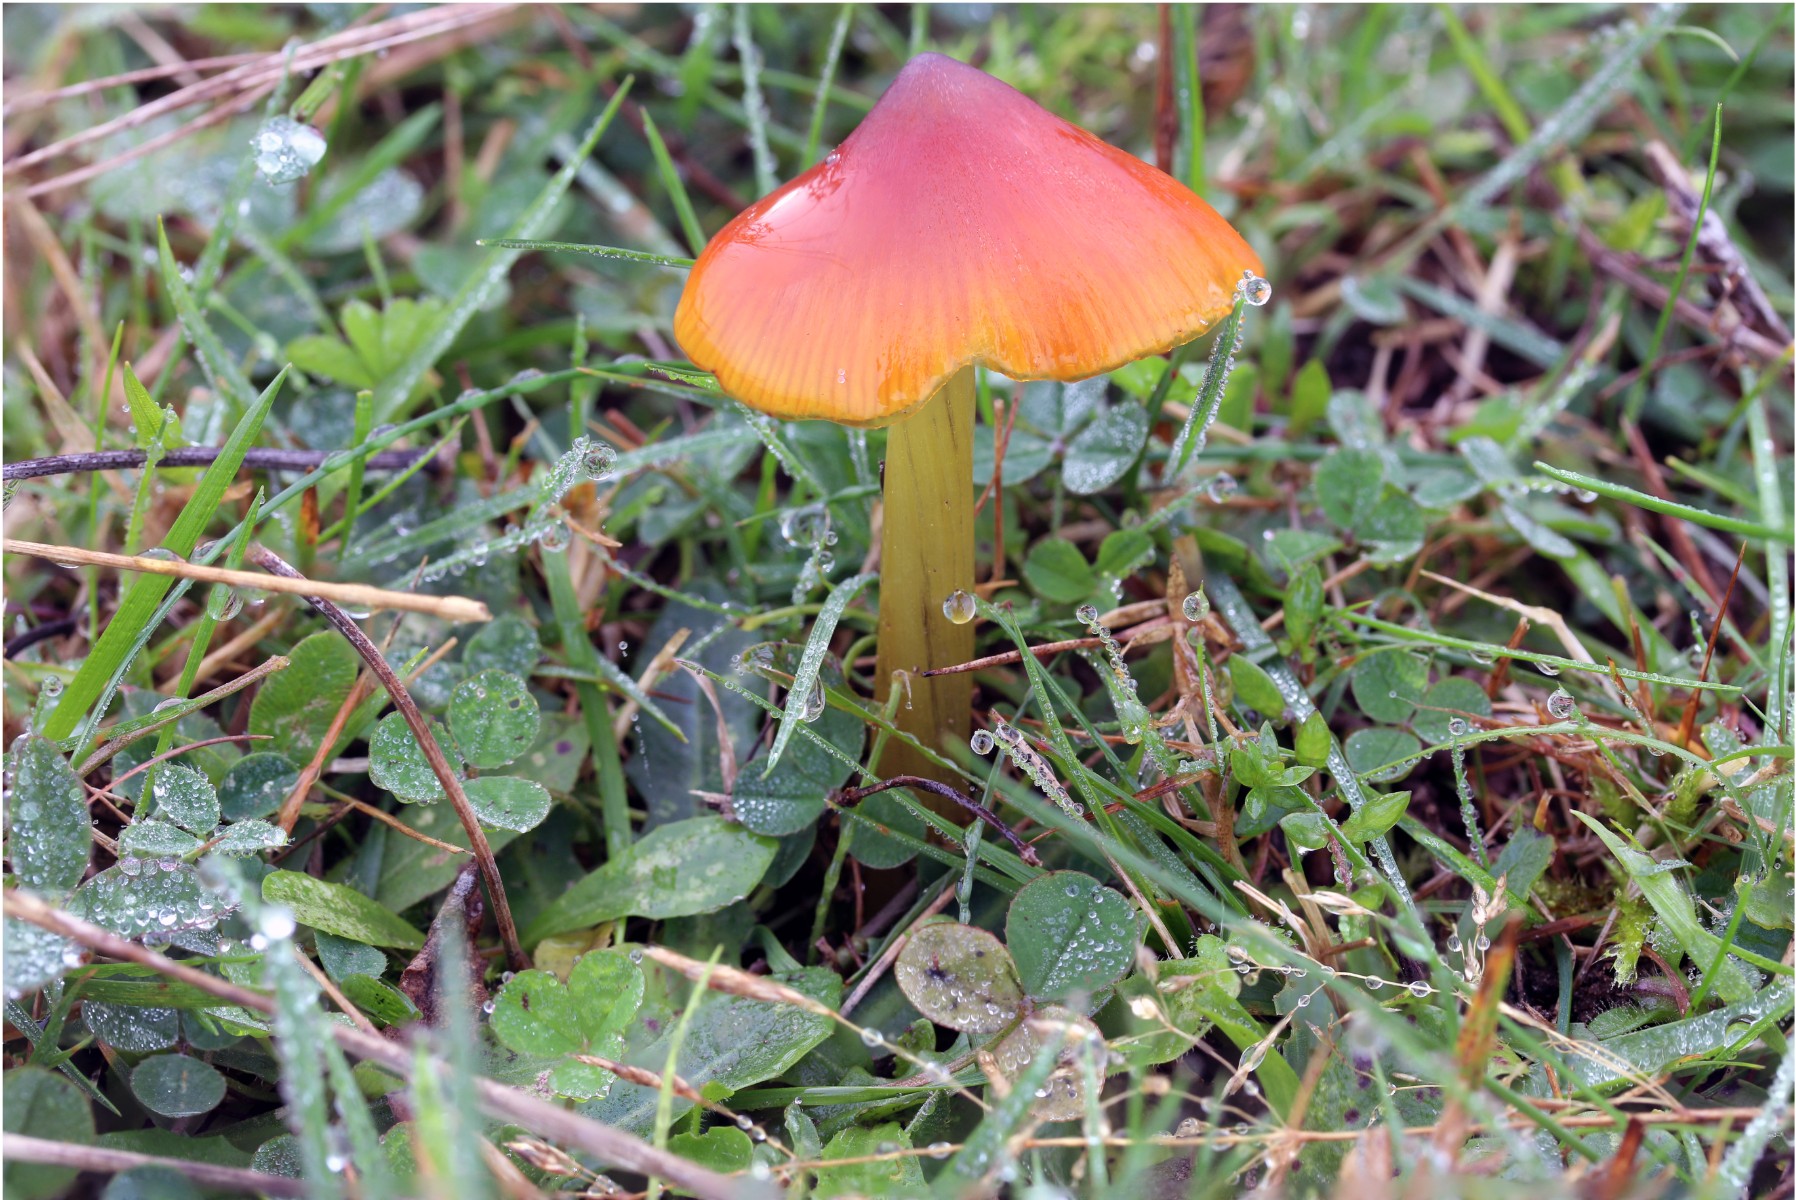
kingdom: Fungi
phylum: Basidiomycota
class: Agaricomycetes
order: Agaricales
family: Hygrophoraceae
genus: Hygrocybe
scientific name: Hygrocybe conica
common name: kegle-vokshat
